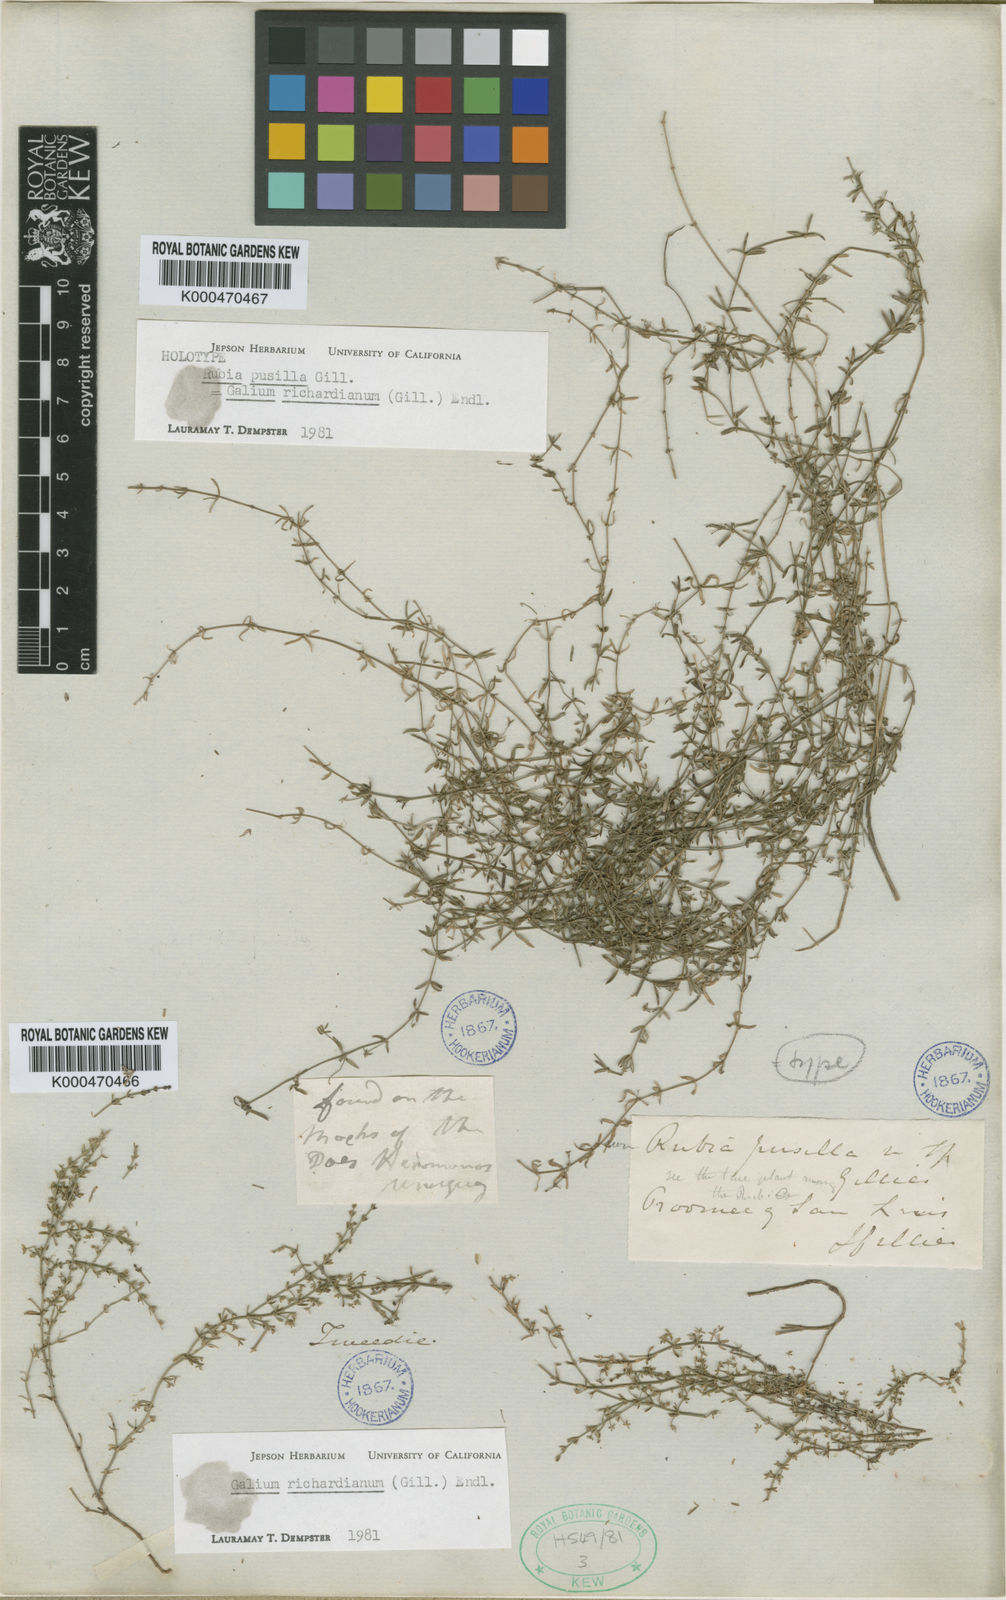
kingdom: Plantae
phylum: Tracheophyta
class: Magnoliopsida
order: Gentianales
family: Rubiaceae
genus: Galium
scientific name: Galium richardianum
